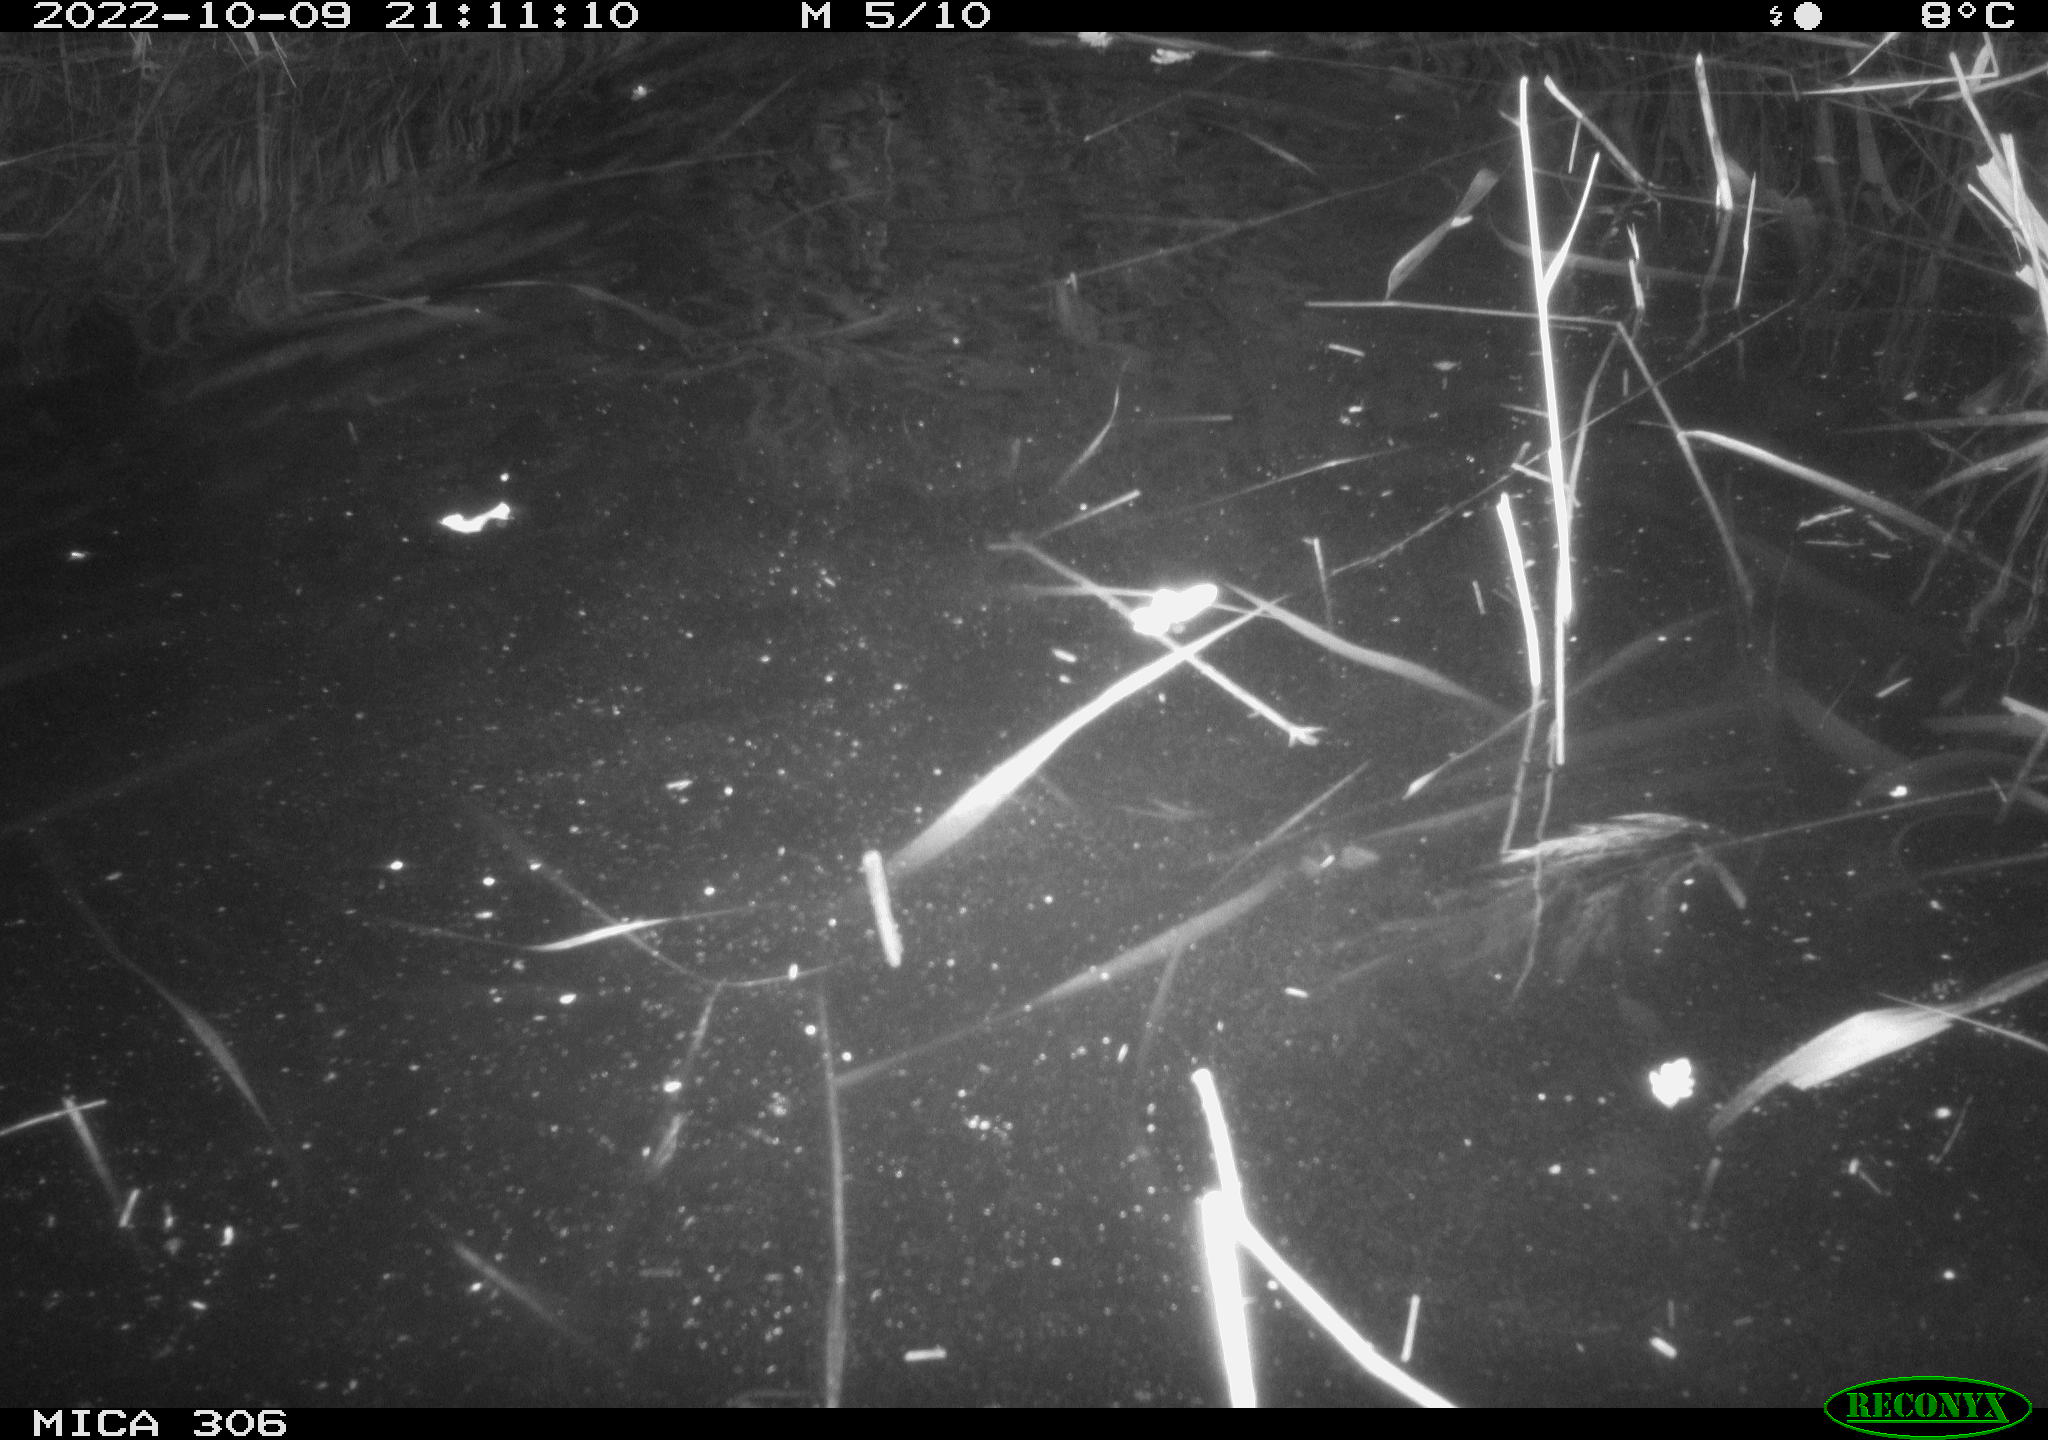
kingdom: Animalia
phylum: Chordata
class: Mammalia
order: Rodentia
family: Muridae
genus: Rattus
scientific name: Rattus norvegicus
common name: Brown rat
